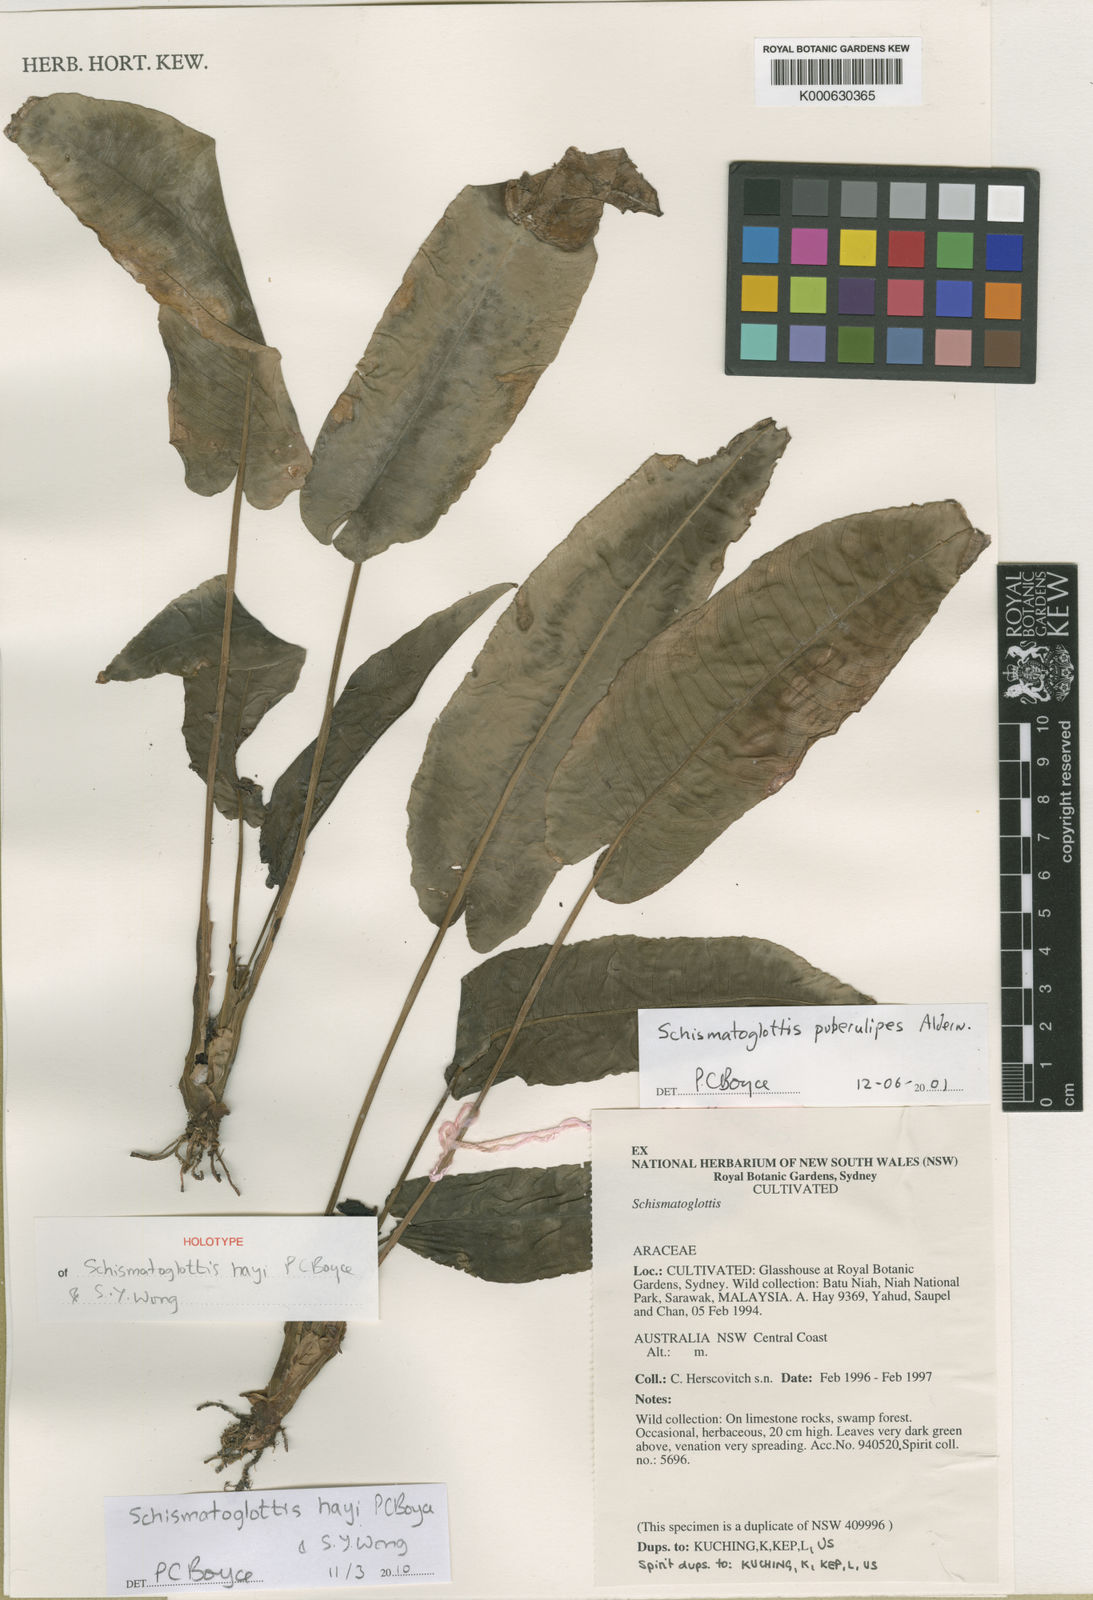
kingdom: Plantae
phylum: Tracheophyta
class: Liliopsida
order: Alismatales
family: Araceae
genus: Schismatoglottis
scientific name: Schismatoglottis hayi
